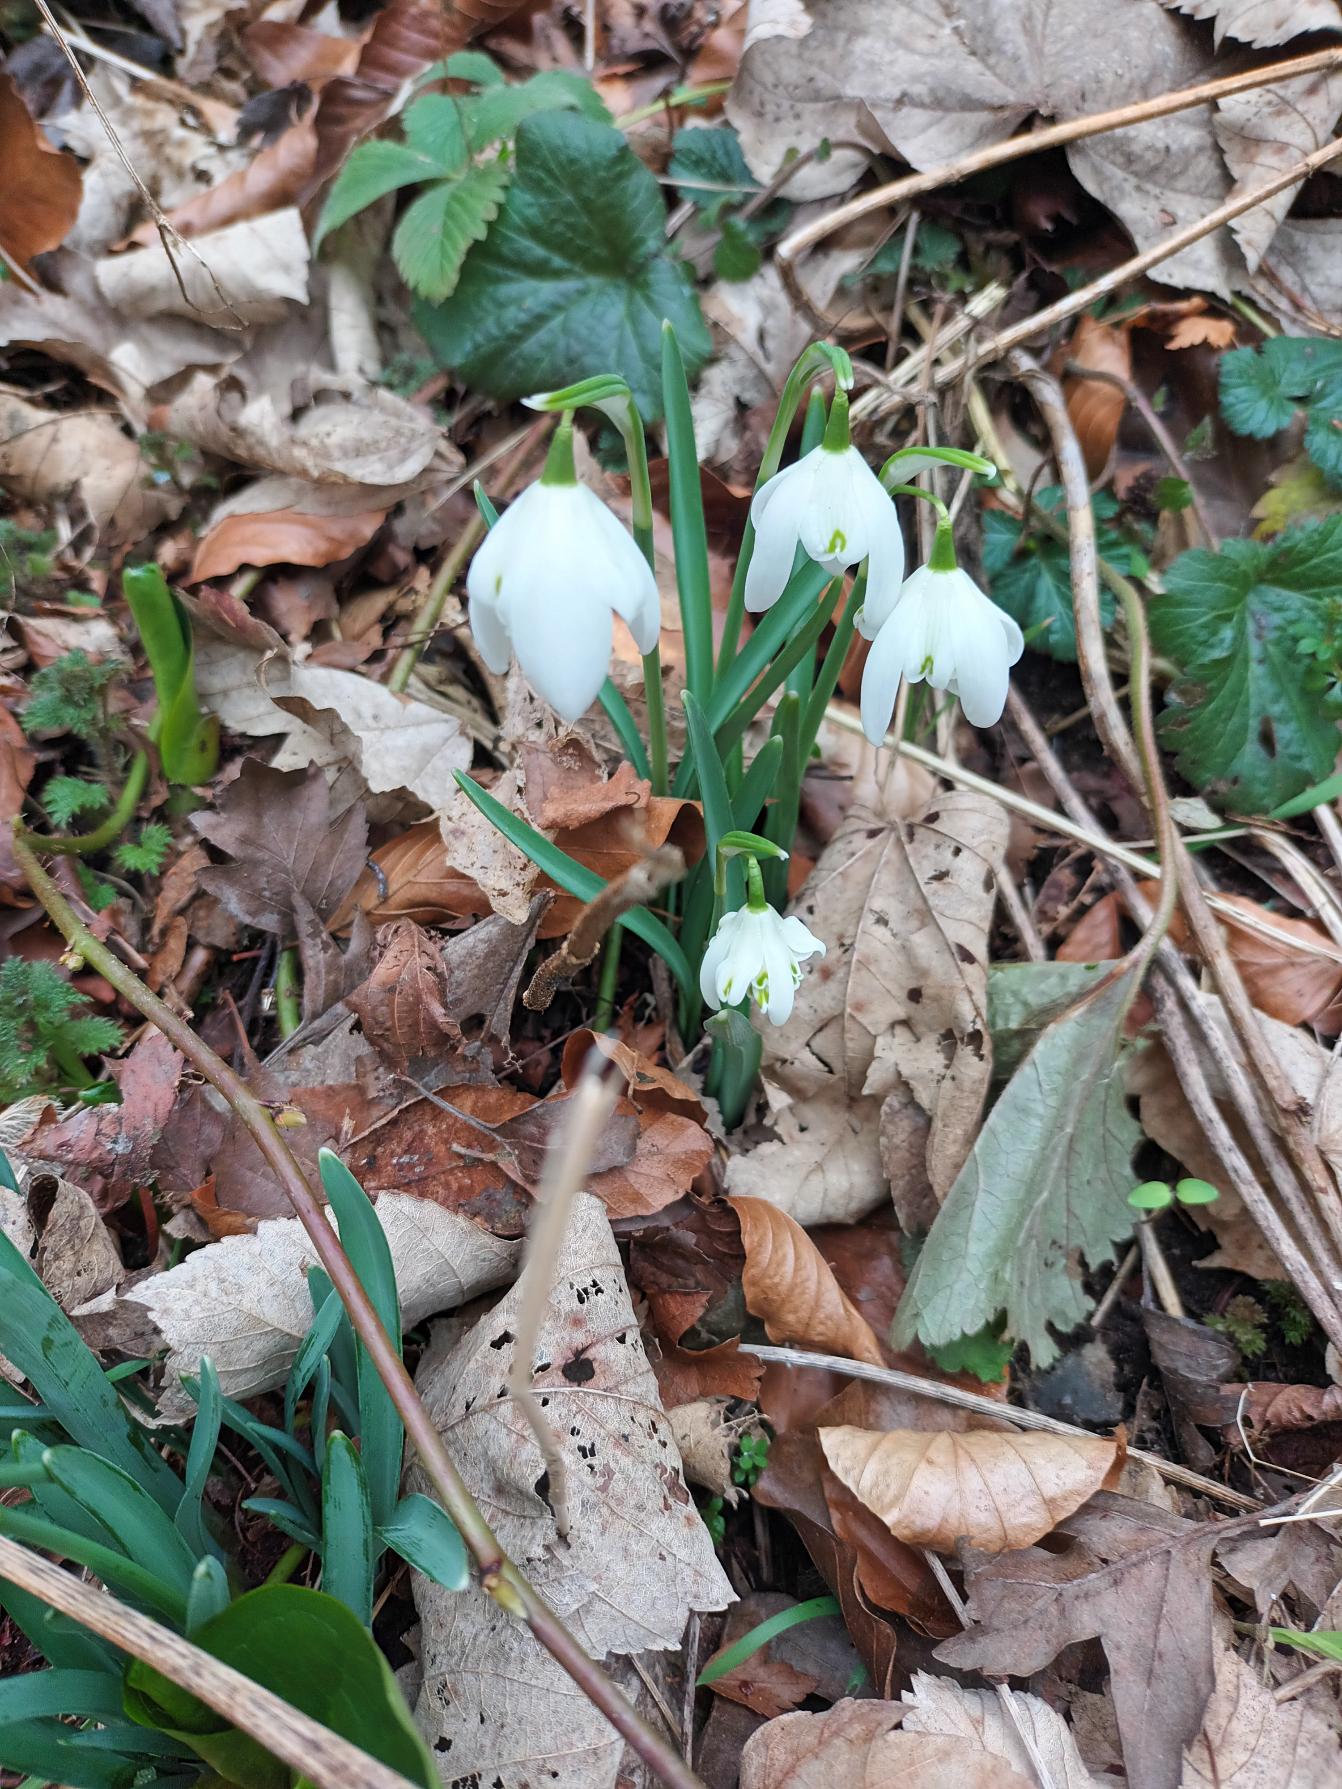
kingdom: Plantae
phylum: Tracheophyta
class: Liliopsida
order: Asparagales
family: Amaryllidaceae
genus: Galanthus
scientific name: Galanthus nivalis
